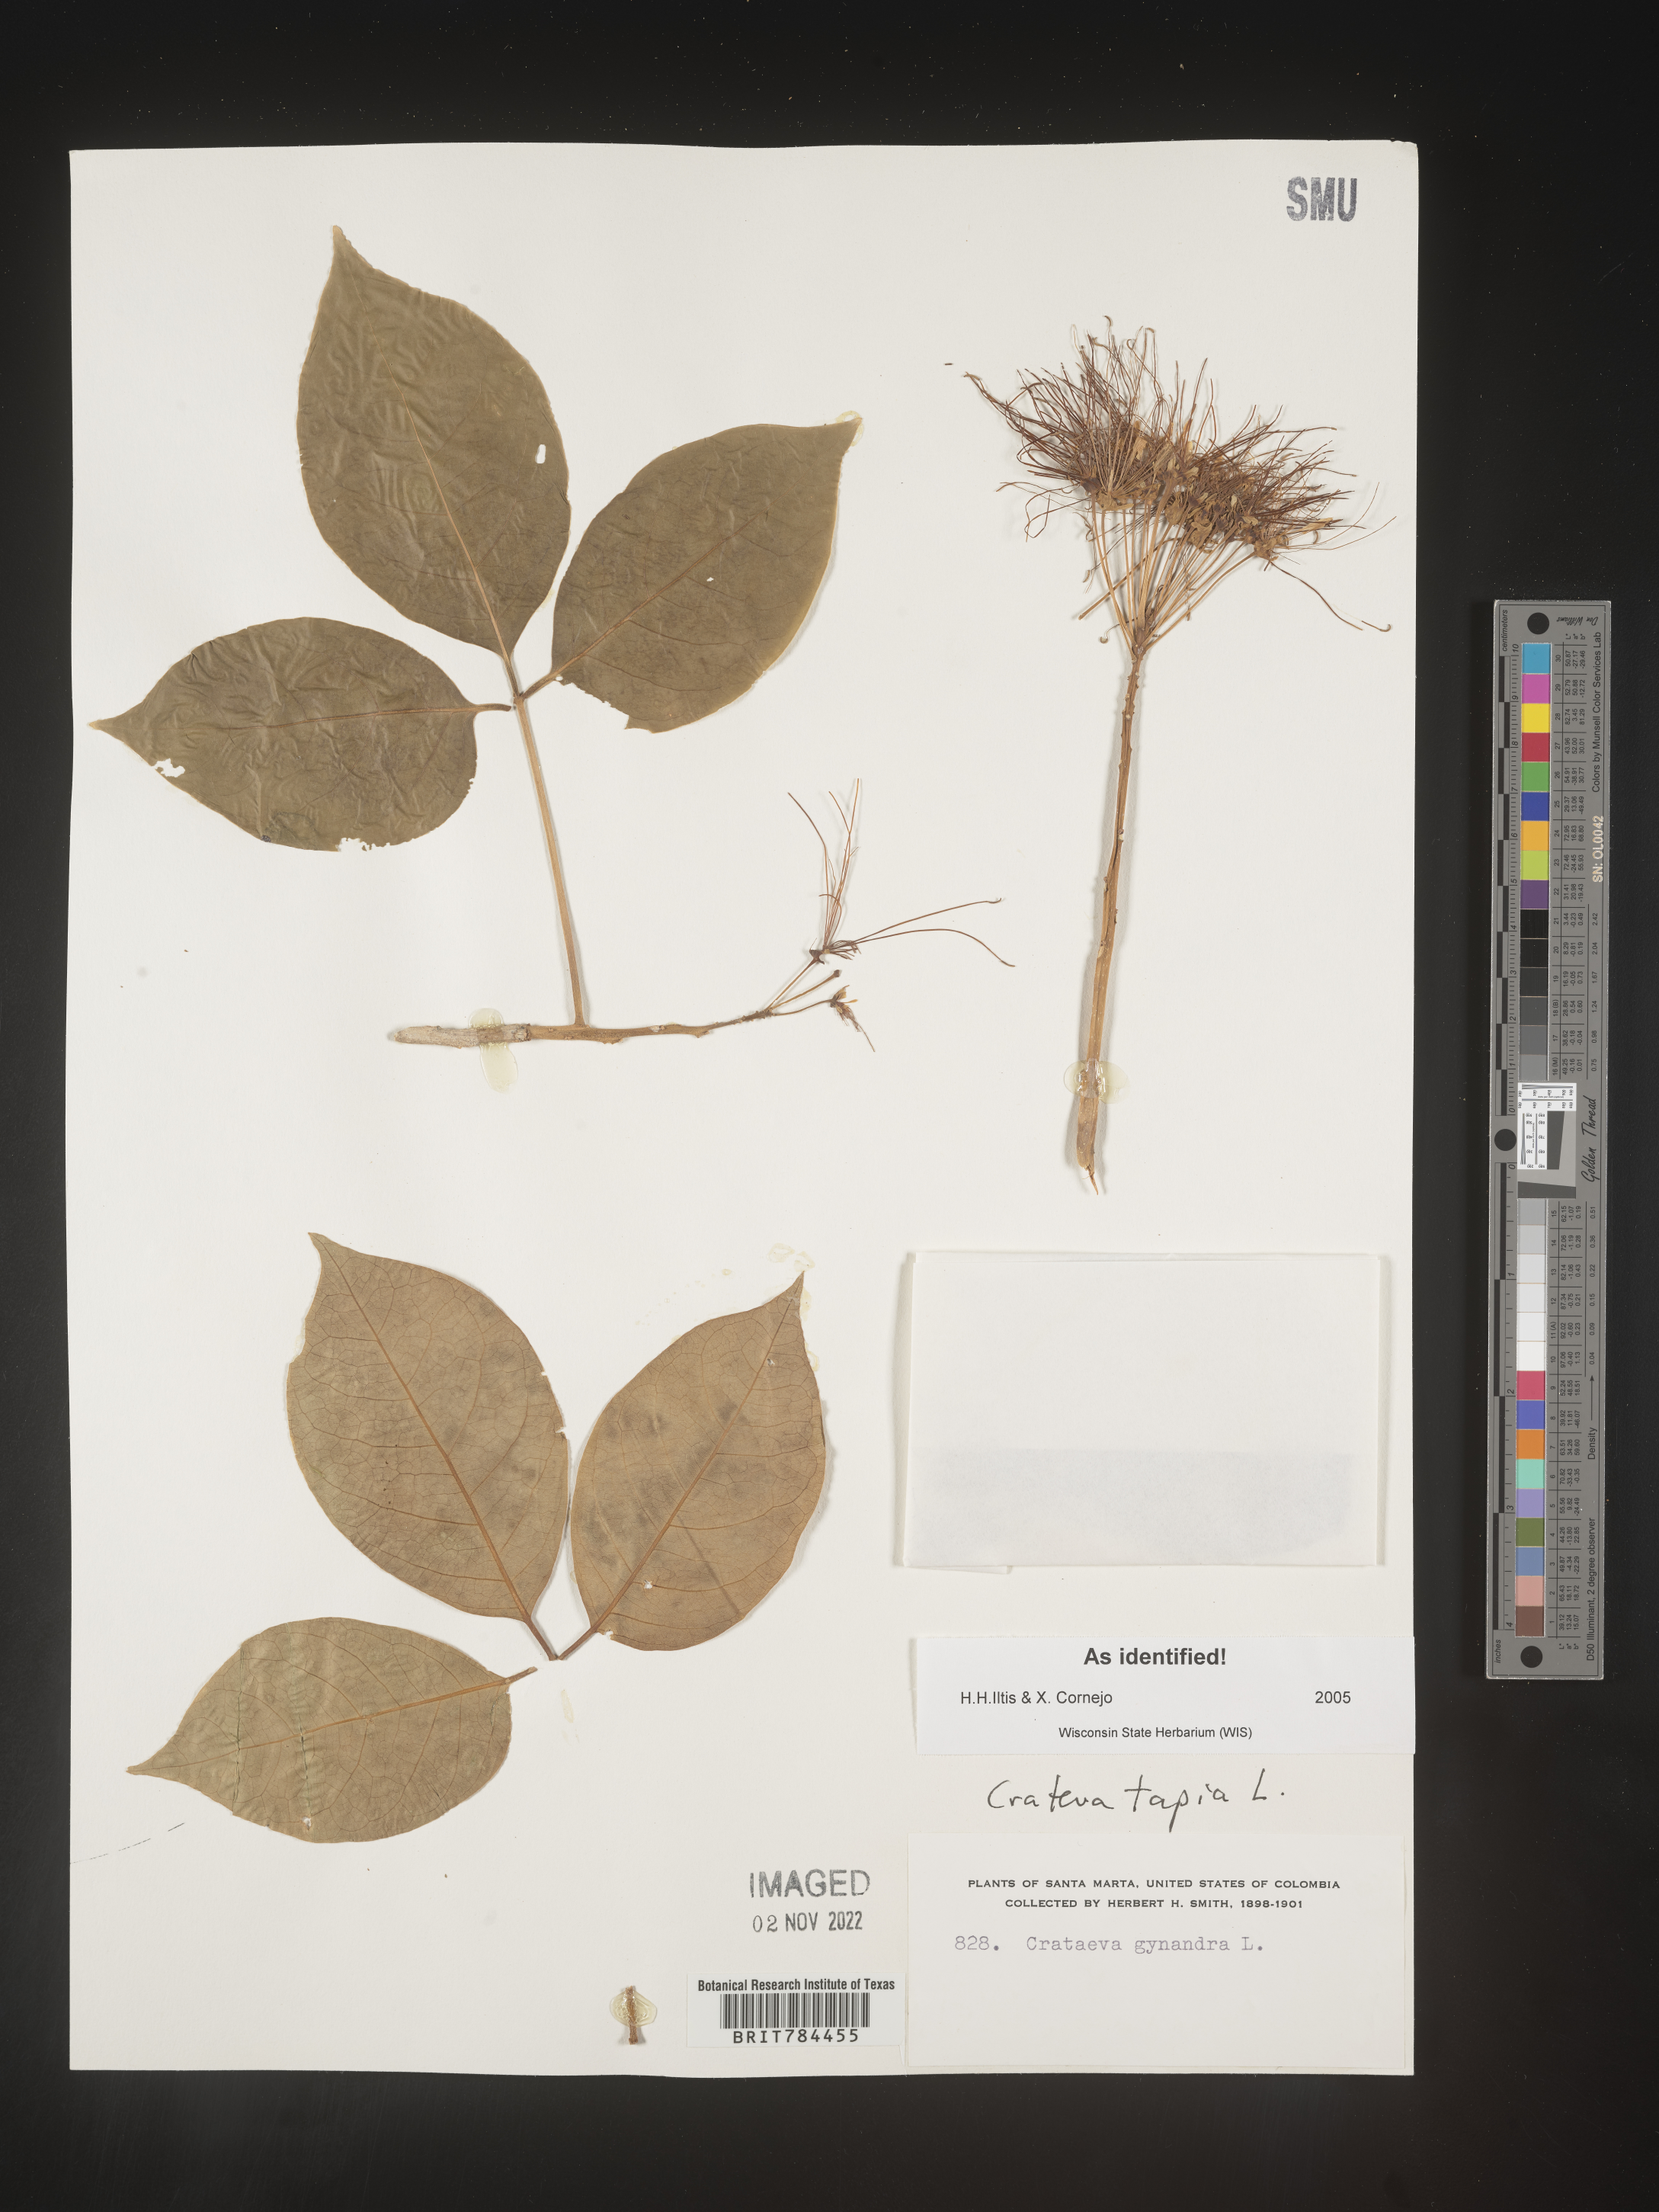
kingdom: Plantae
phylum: Tracheophyta
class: Magnoliopsida
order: Brassicales
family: Capparaceae
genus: Crateva
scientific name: Crateva
